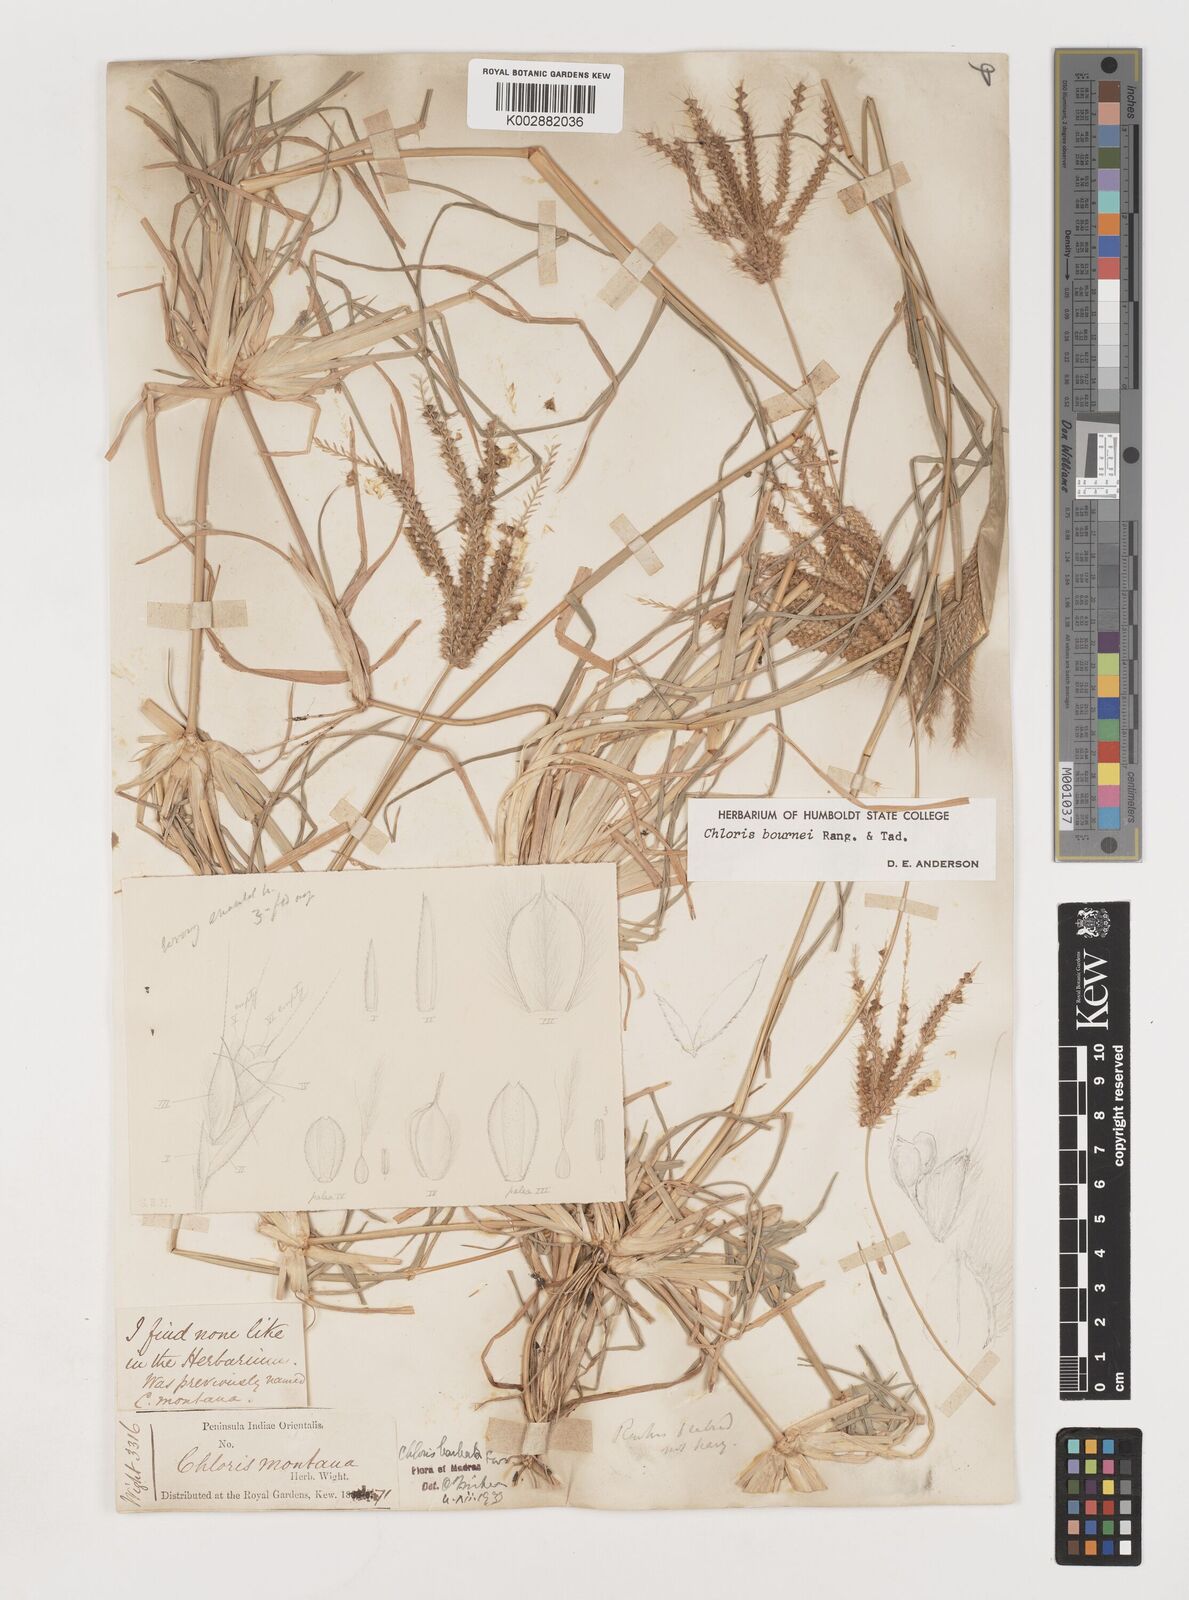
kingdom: Plantae
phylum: Tracheophyta
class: Liliopsida
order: Poales
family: Poaceae
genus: Chloris
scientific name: Chloris bournei
